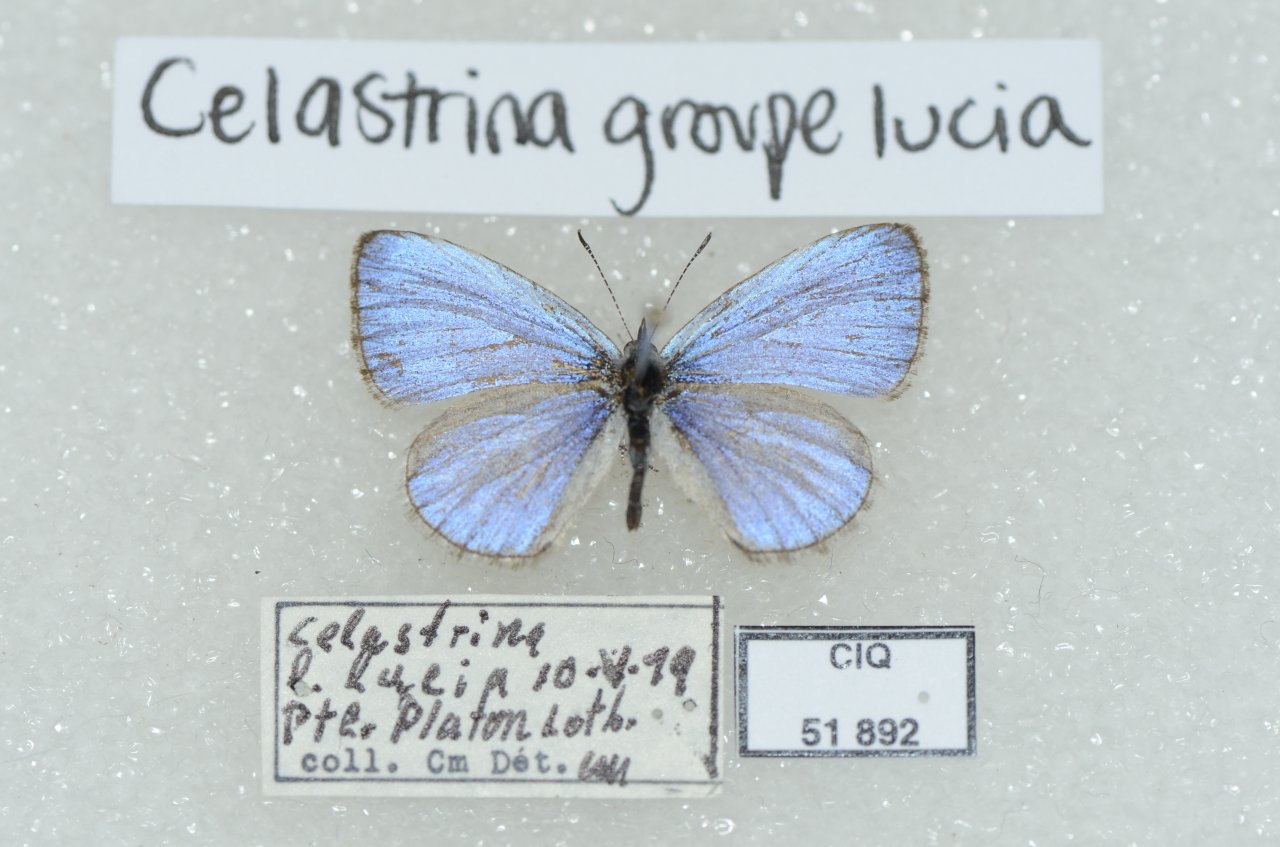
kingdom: Animalia
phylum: Arthropoda
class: Insecta
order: Lepidoptera
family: Lycaenidae
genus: Celastrina
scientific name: Celastrina lucia
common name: Northern Spring Azure
